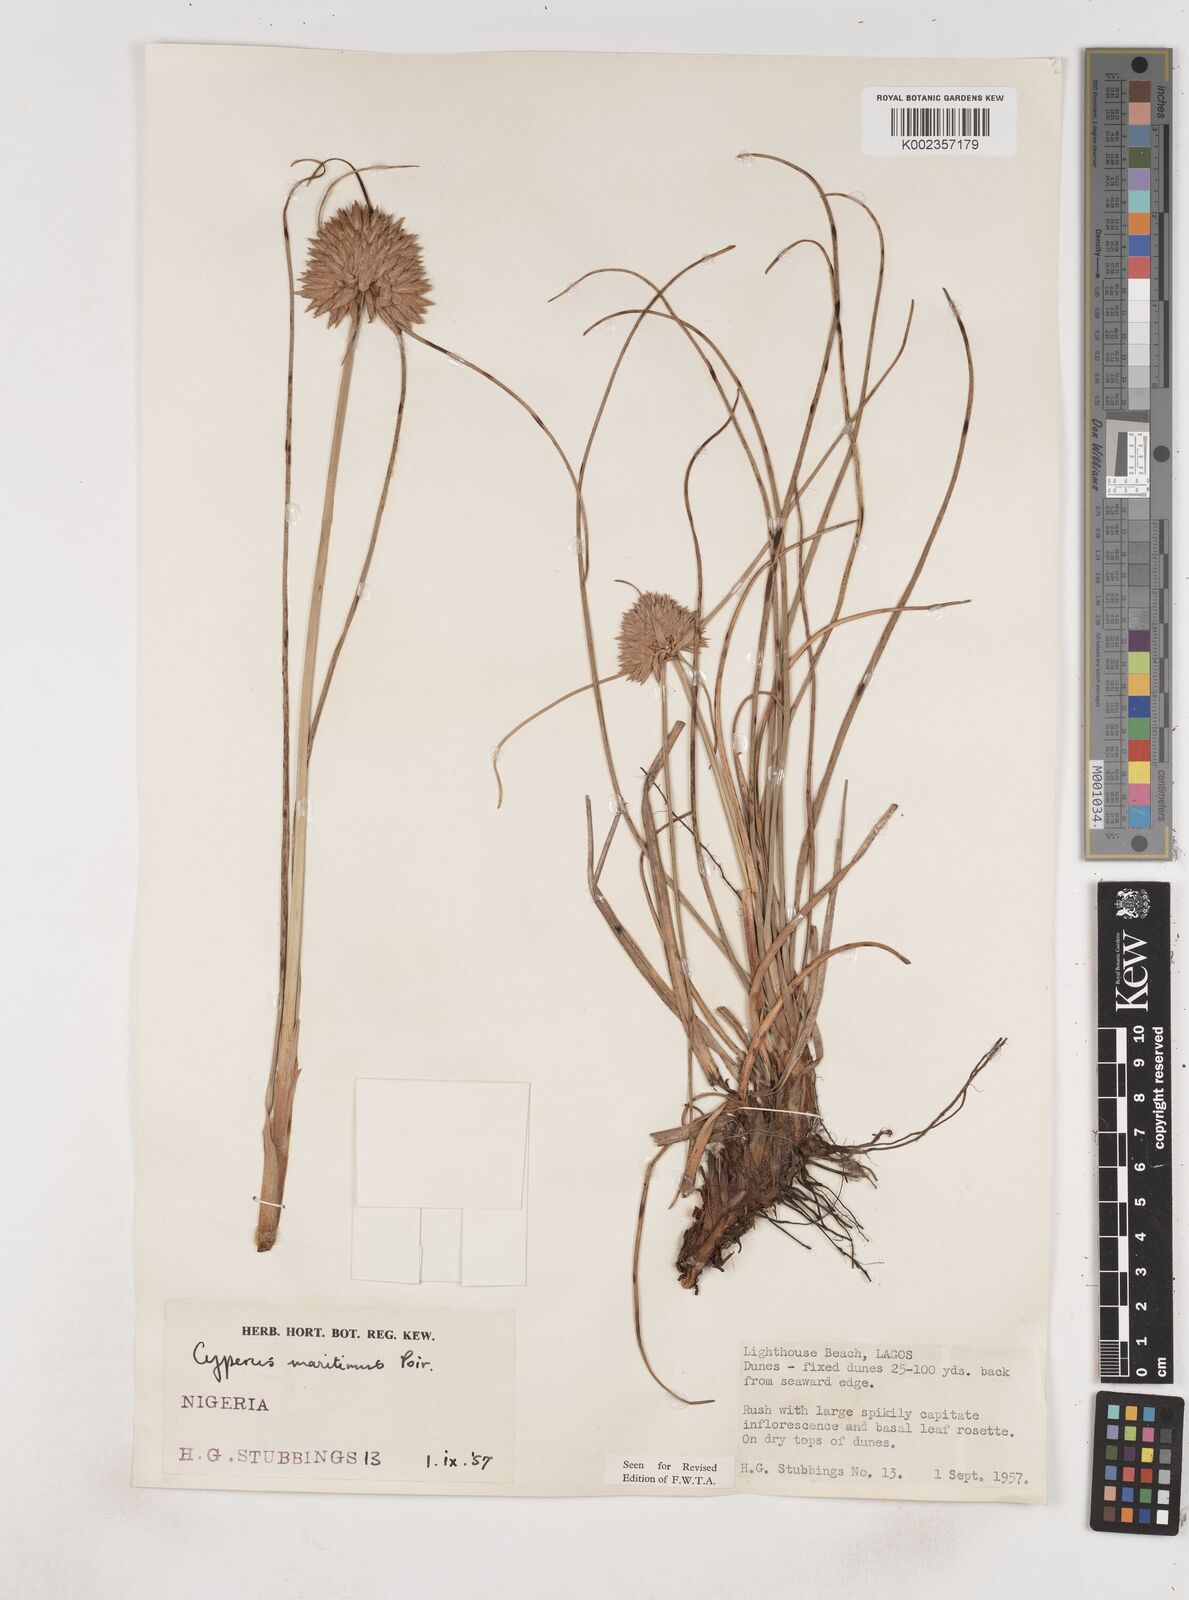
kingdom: Plantae
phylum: Tracheophyta
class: Liliopsida
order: Poales
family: Cyperaceae
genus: Cyperus
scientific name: Cyperus crassipes
